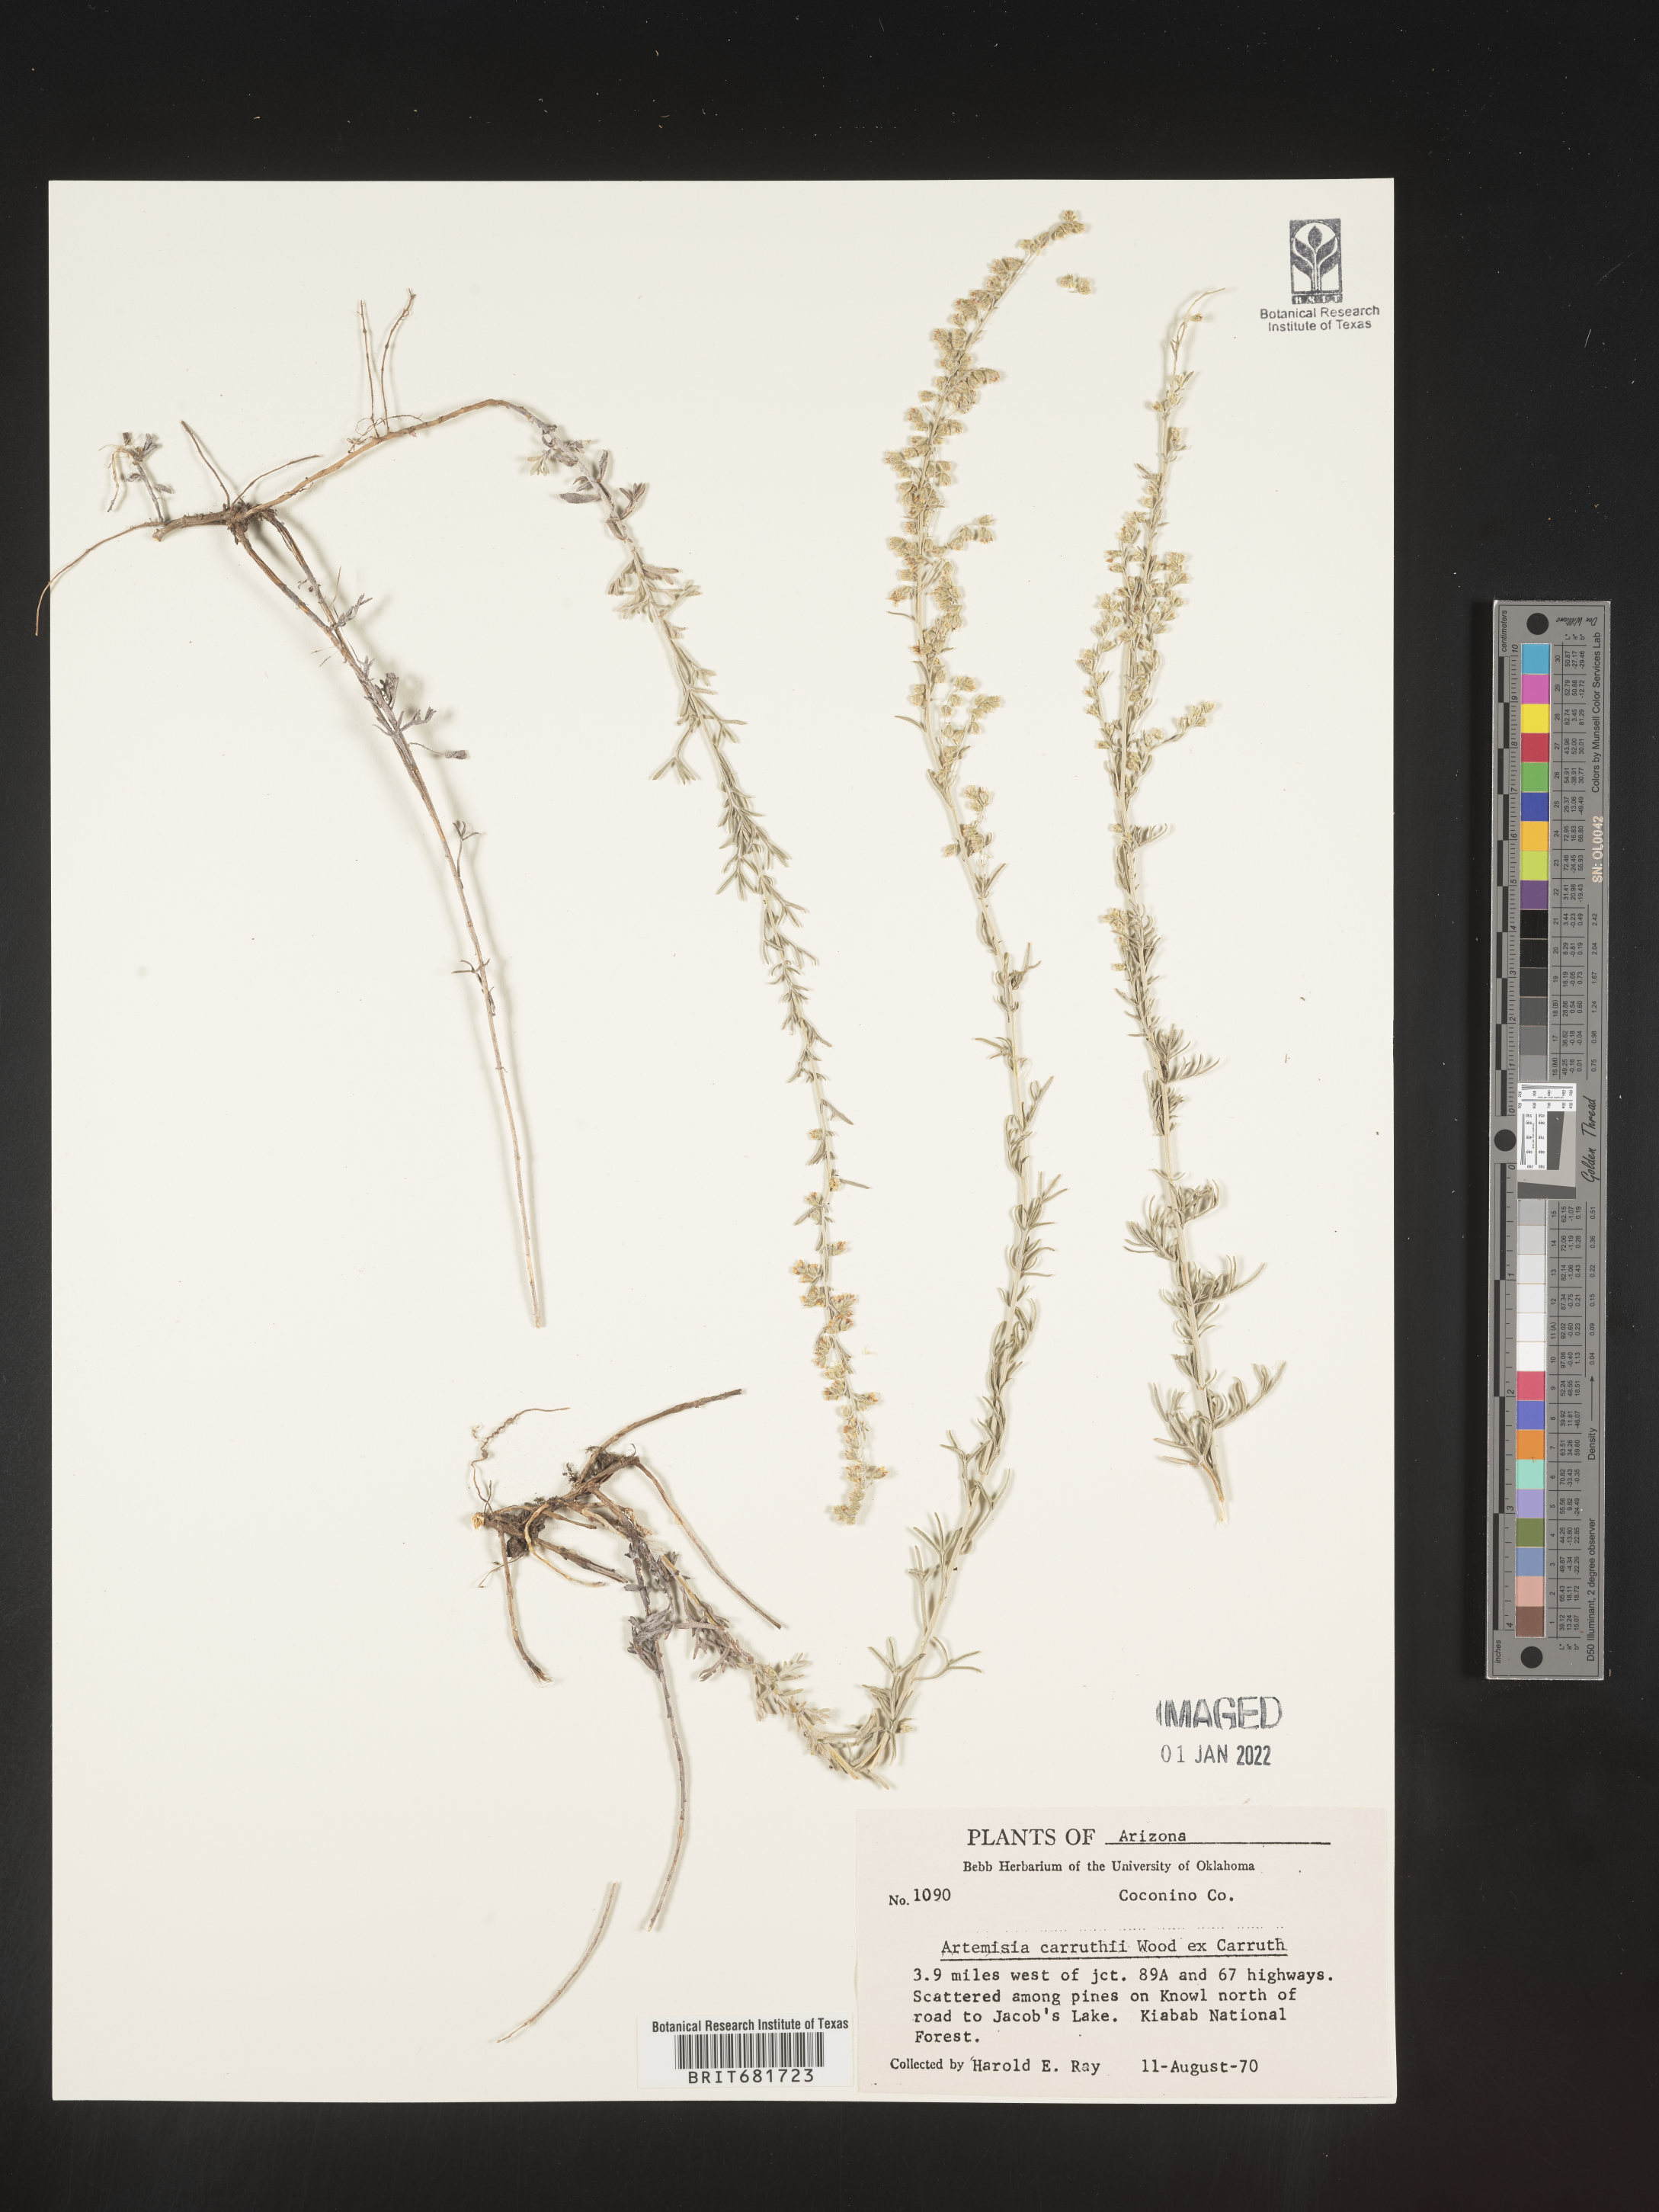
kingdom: Plantae
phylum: Tracheophyta
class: Magnoliopsida
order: Asterales
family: Asteraceae
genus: Artemisia
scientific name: Artemisia carruthii
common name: Carruth wormwood
